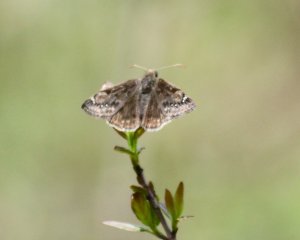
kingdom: Animalia
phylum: Arthropoda
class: Insecta
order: Lepidoptera
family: Hesperiidae
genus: Gesta
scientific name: Gesta
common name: Juvenal's Duskywing
